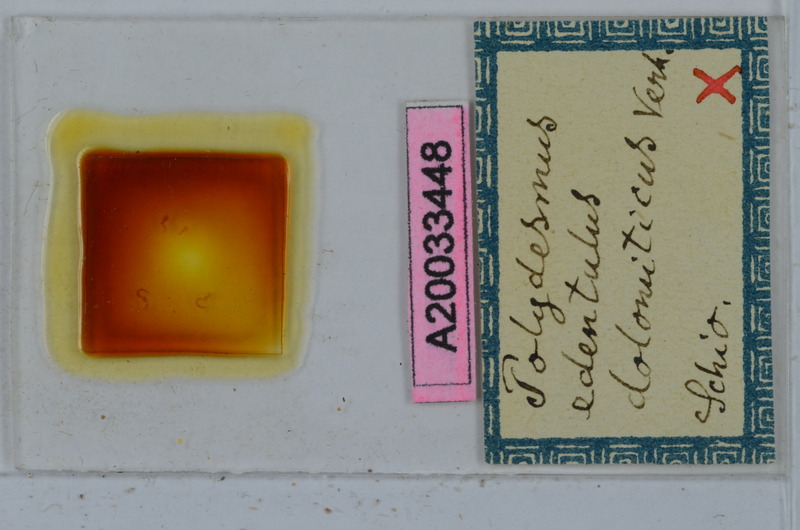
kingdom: Animalia
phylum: Arthropoda
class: Diplopoda
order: Polydesmida
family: Polydesmidae
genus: Polydesmus
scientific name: Polydesmus edentulus
